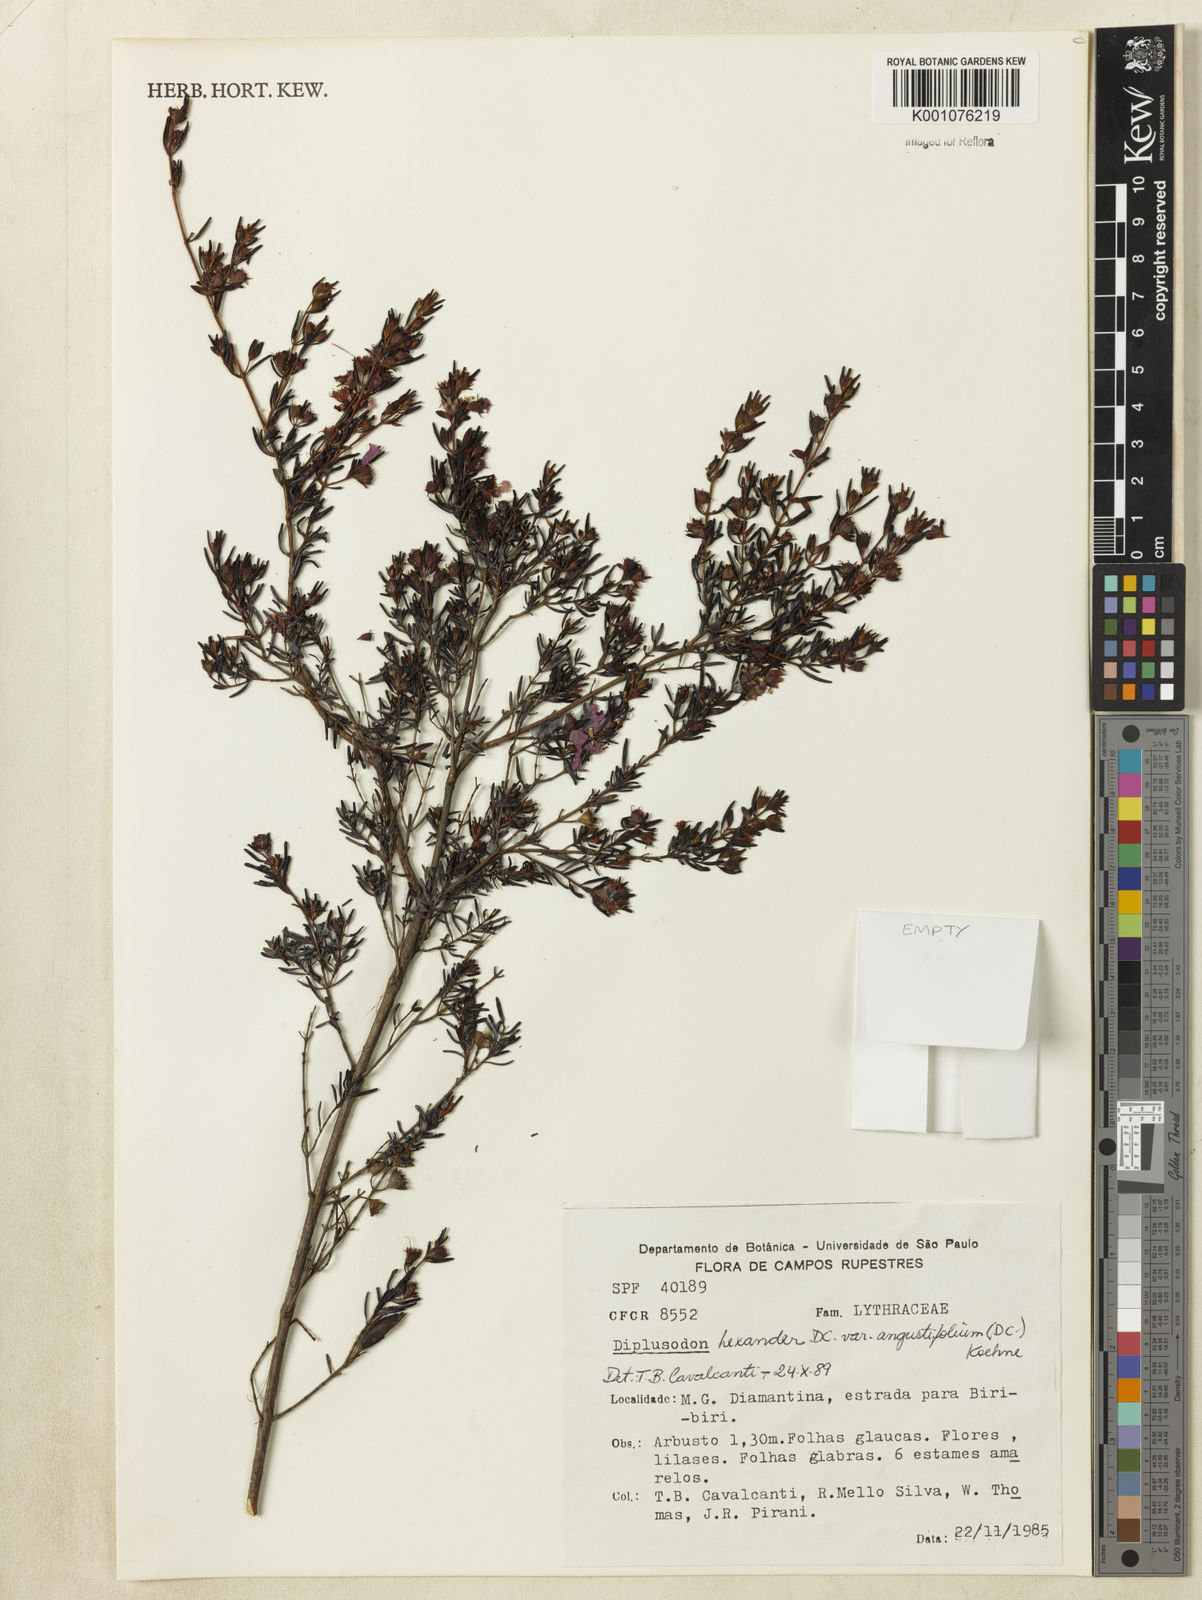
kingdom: Plantae
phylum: Tracheophyta
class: Magnoliopsida
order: Myrtales
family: Lythraceae
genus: Diplusodon
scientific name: Diplusodon hexander
